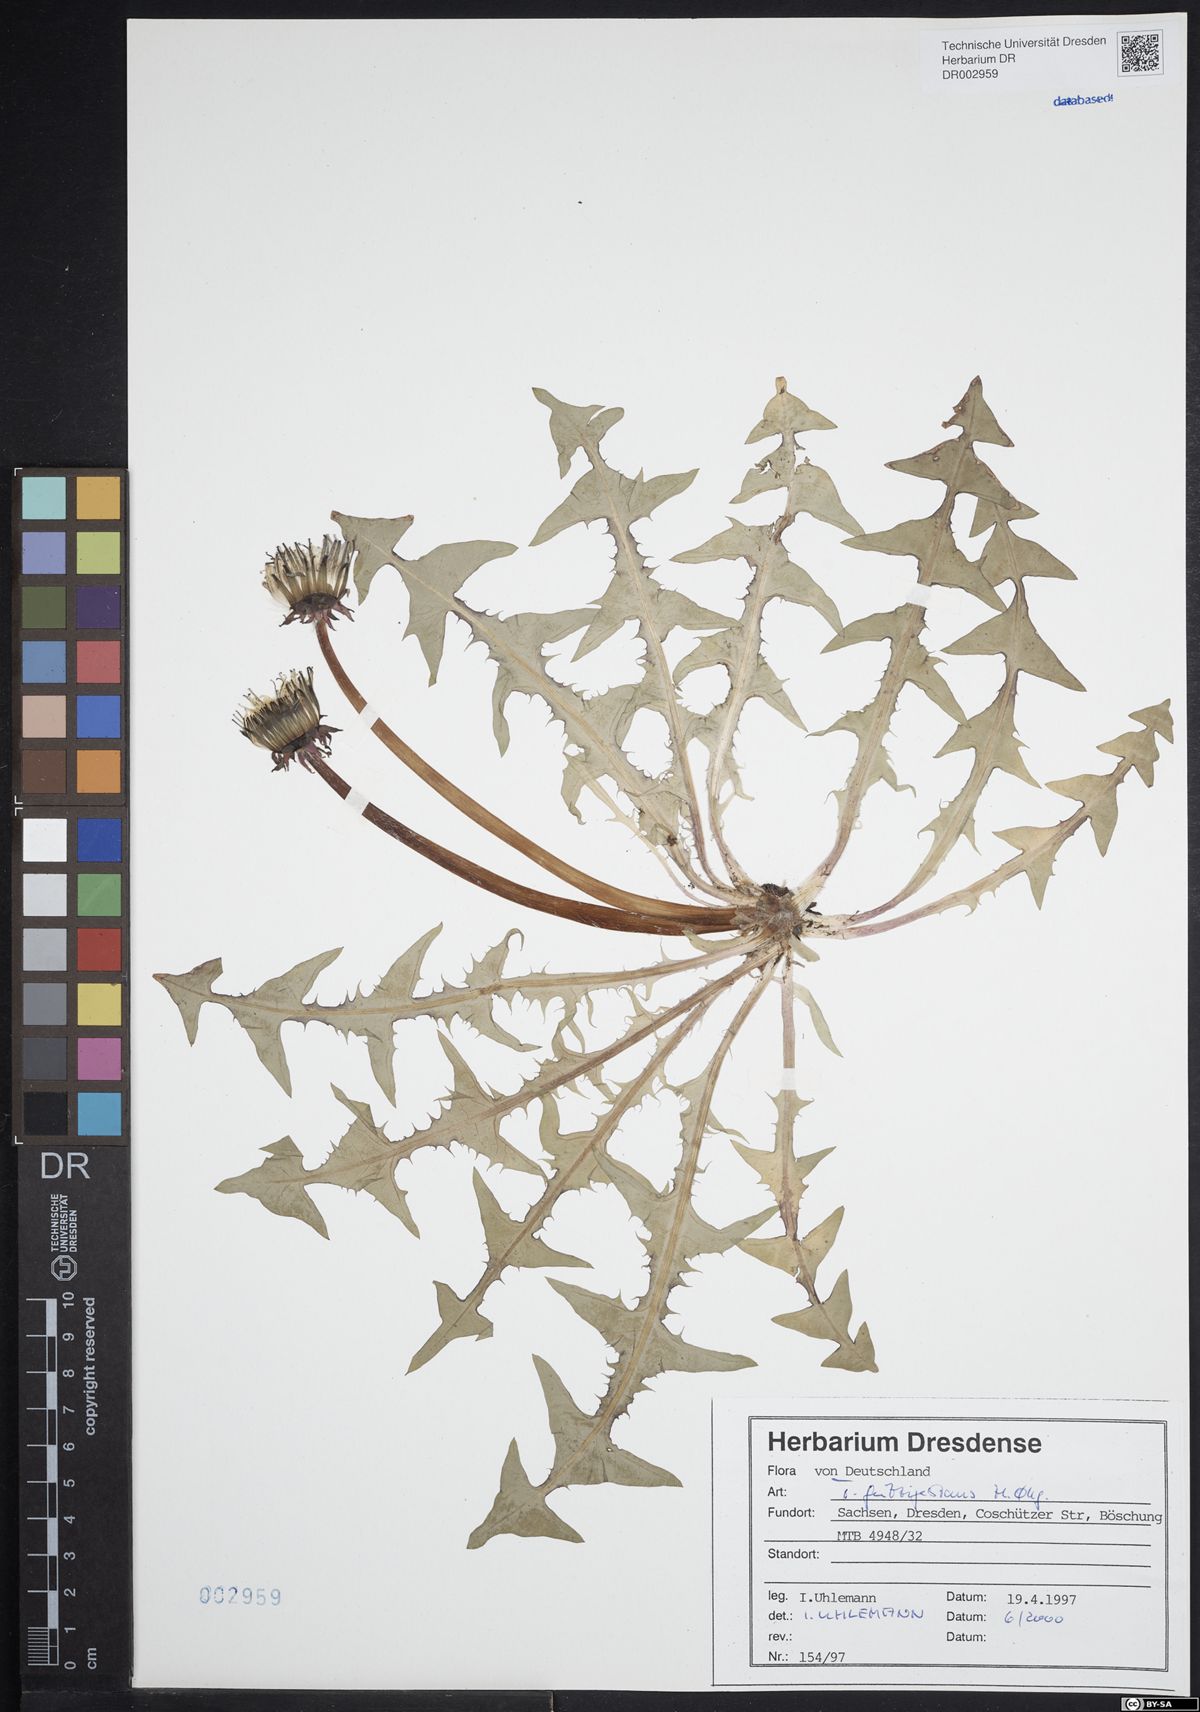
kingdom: Plantae
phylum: Tracheophyta
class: Magnoliopsida
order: Asterales
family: Asteraceae
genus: Taraxacum
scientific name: Taraxacum guttigestans
